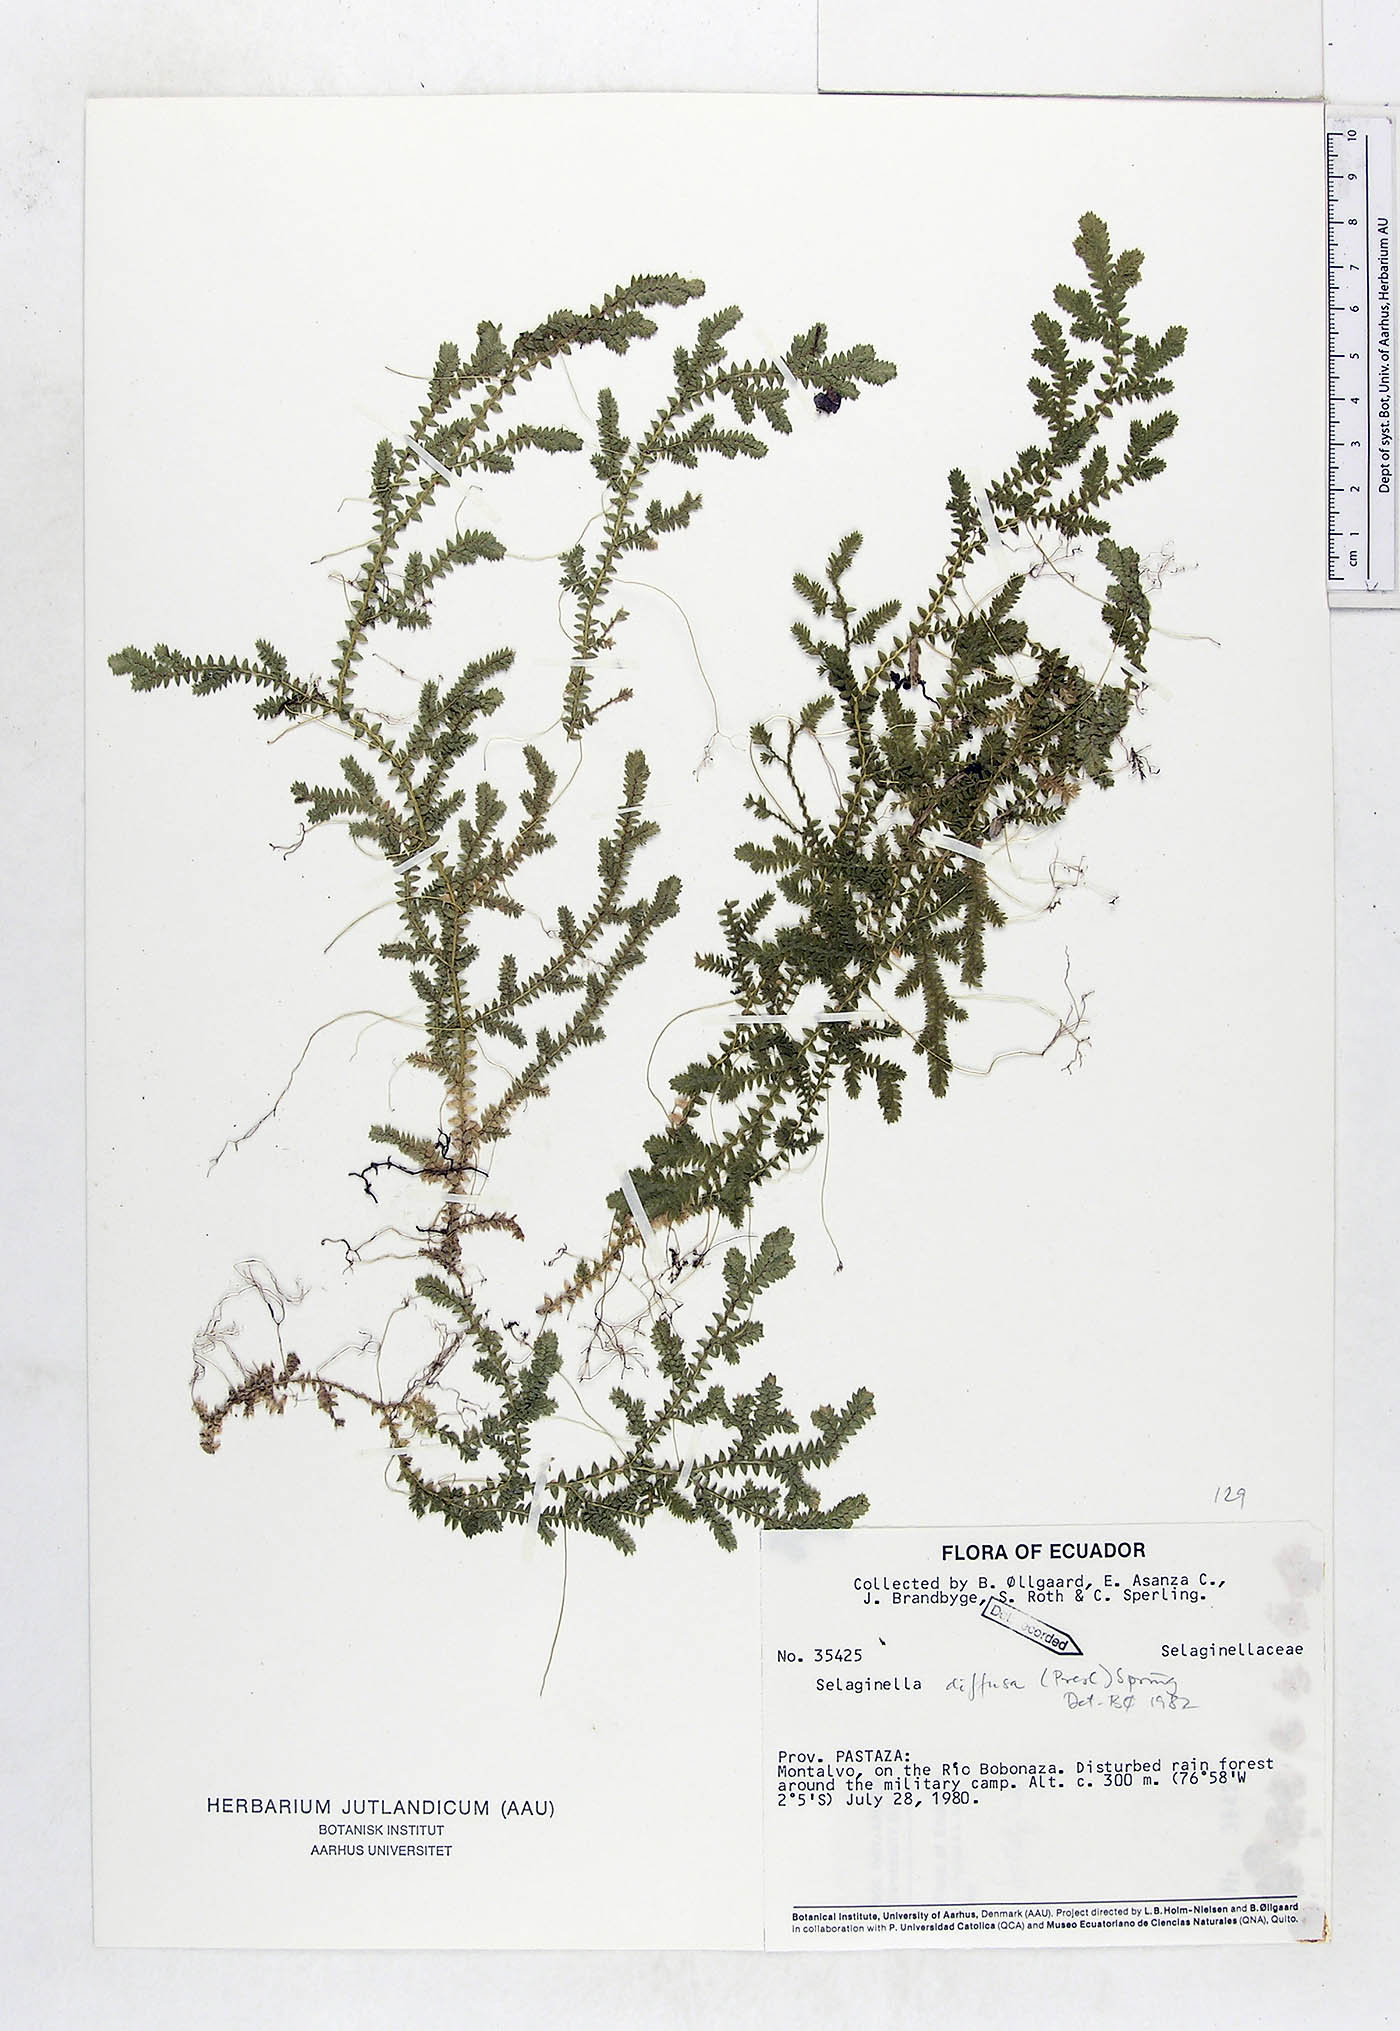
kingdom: Plantae
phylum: Tracheophyta
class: Lycopodiopsida
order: Selaginellales
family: Selaginellaceae
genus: Selaginella
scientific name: Selaginella diffusa
